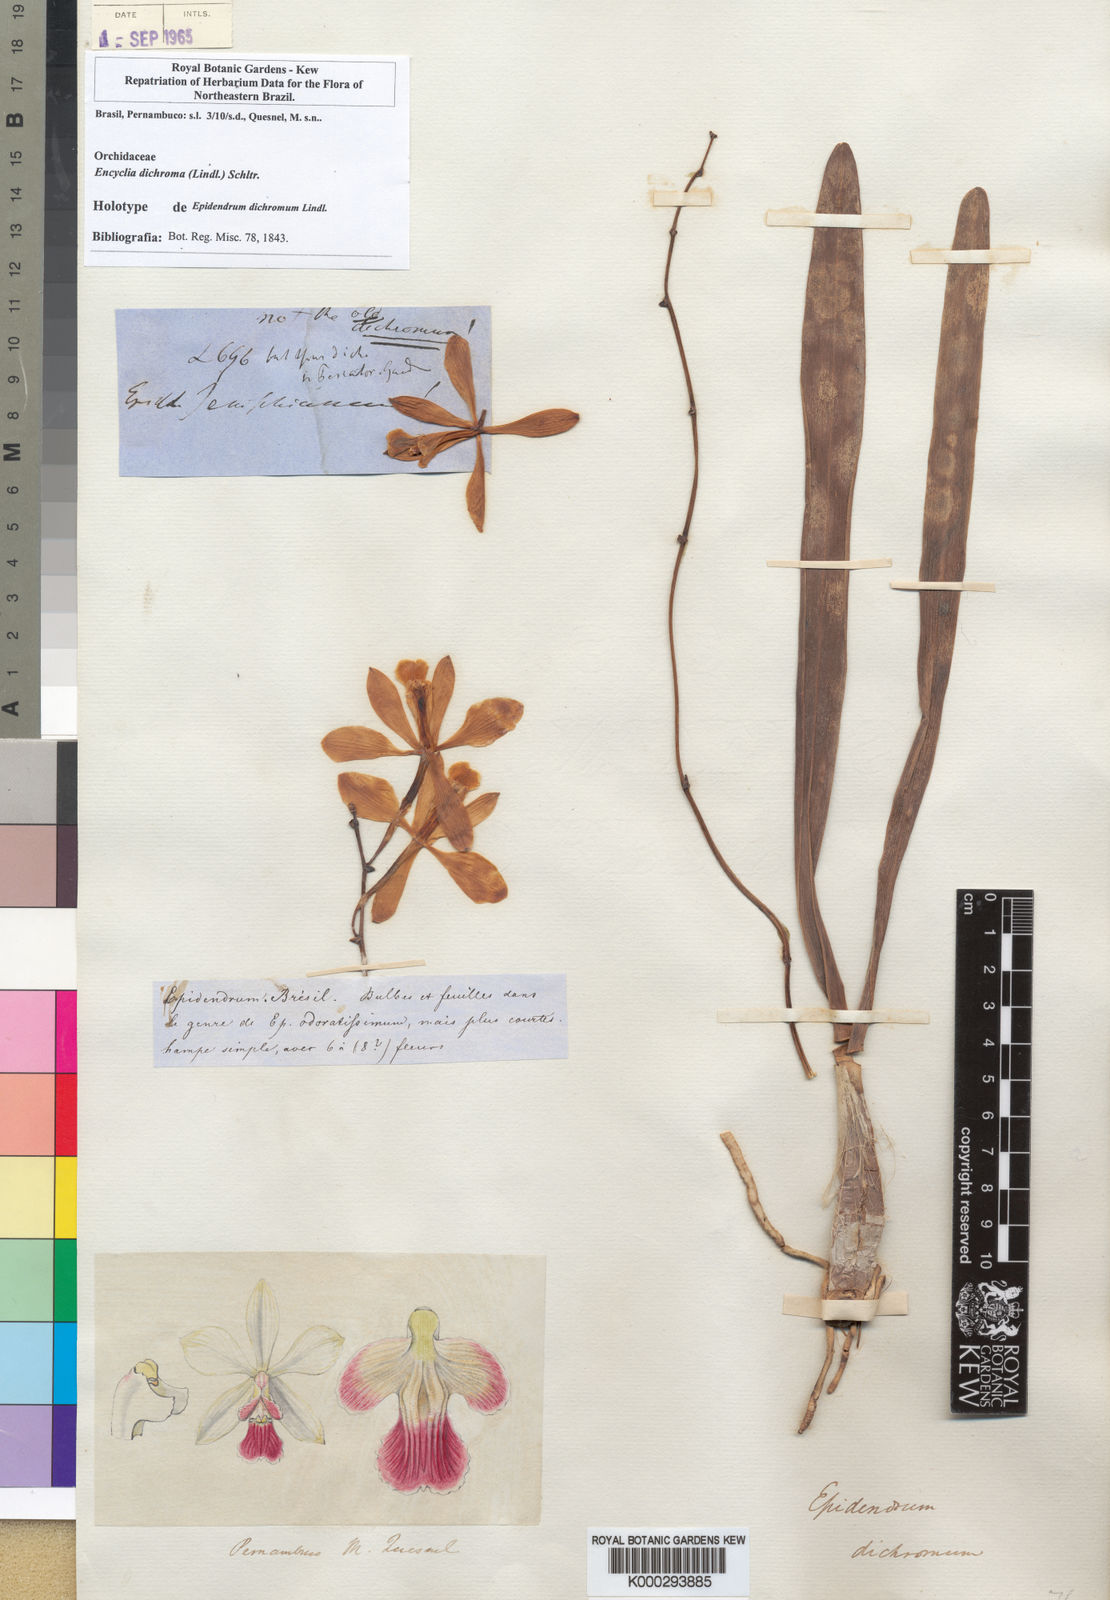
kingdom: Plantae
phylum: Tracheophyta
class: Liliopsida
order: Asparagales
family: Orchidaceae
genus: Encyclia
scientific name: Encyclia dichroma
